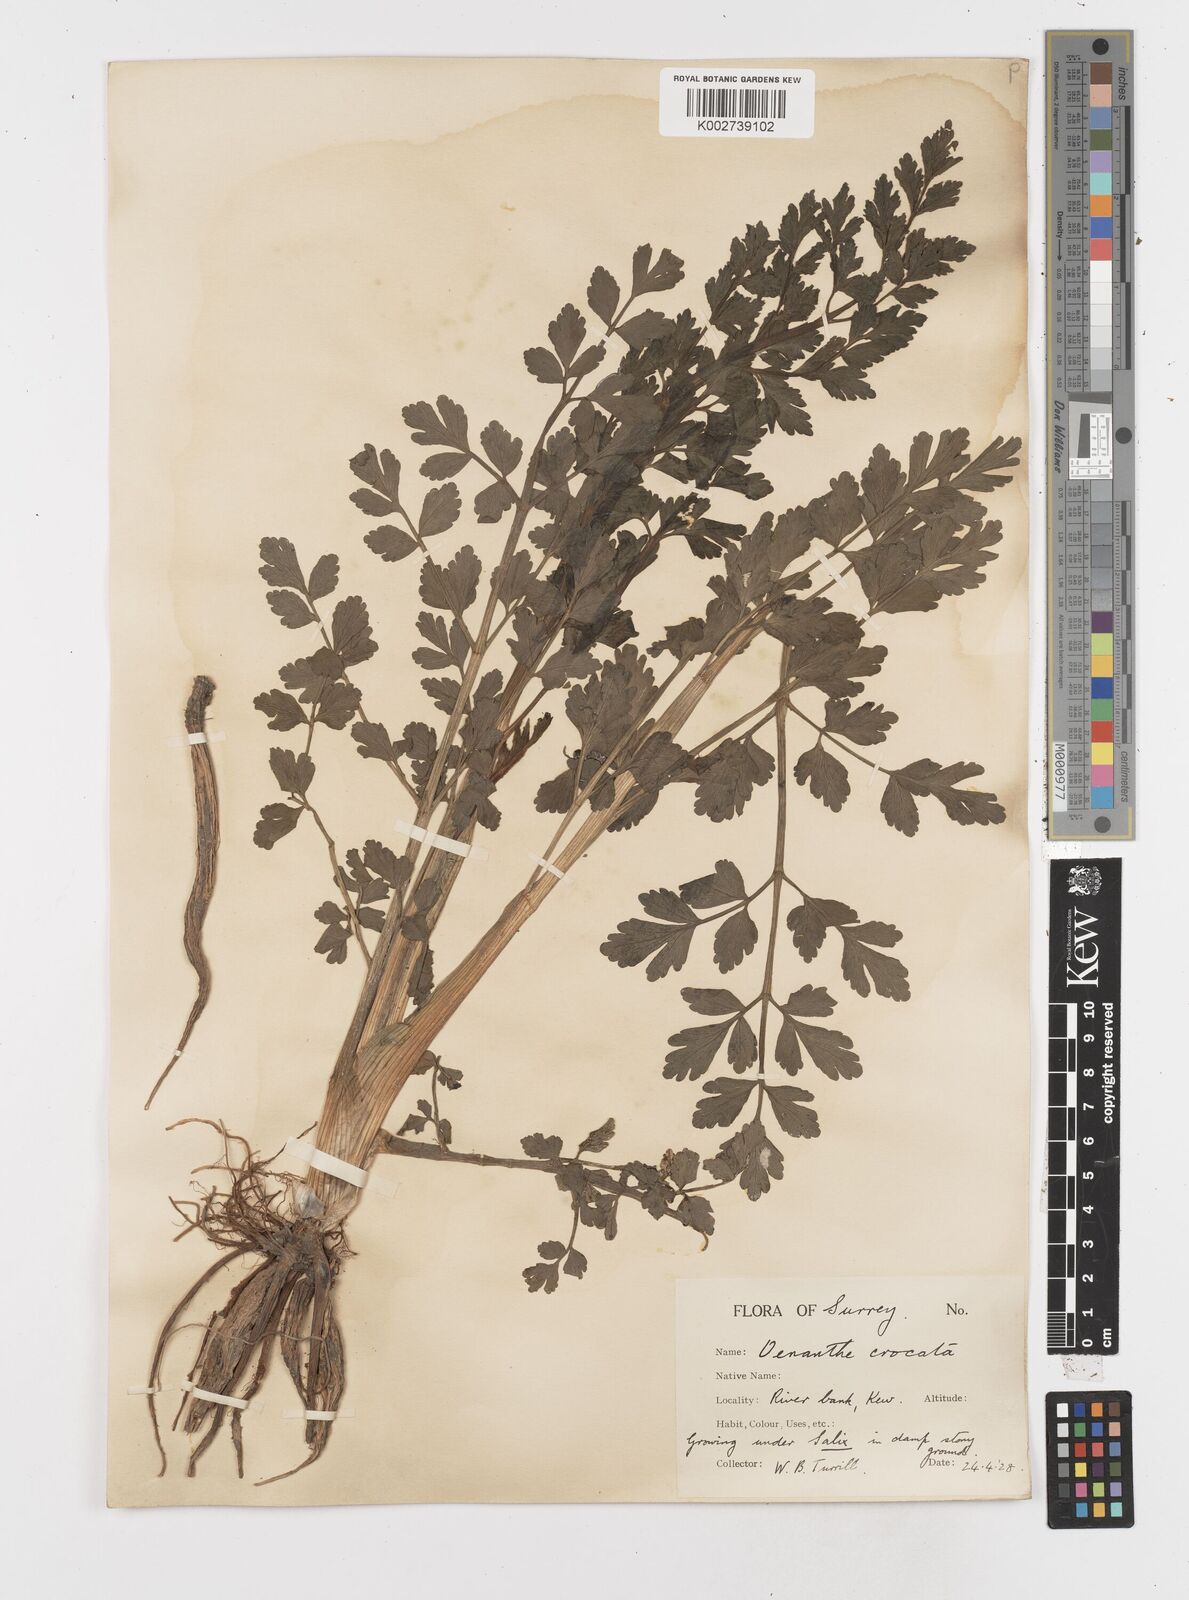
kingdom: Plantae
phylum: Tracheophyta
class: Magnoliopsida
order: Apiales
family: Apiaceae
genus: Oenanthe
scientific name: Oenanthe crocata
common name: Hemlock water-dropwort
